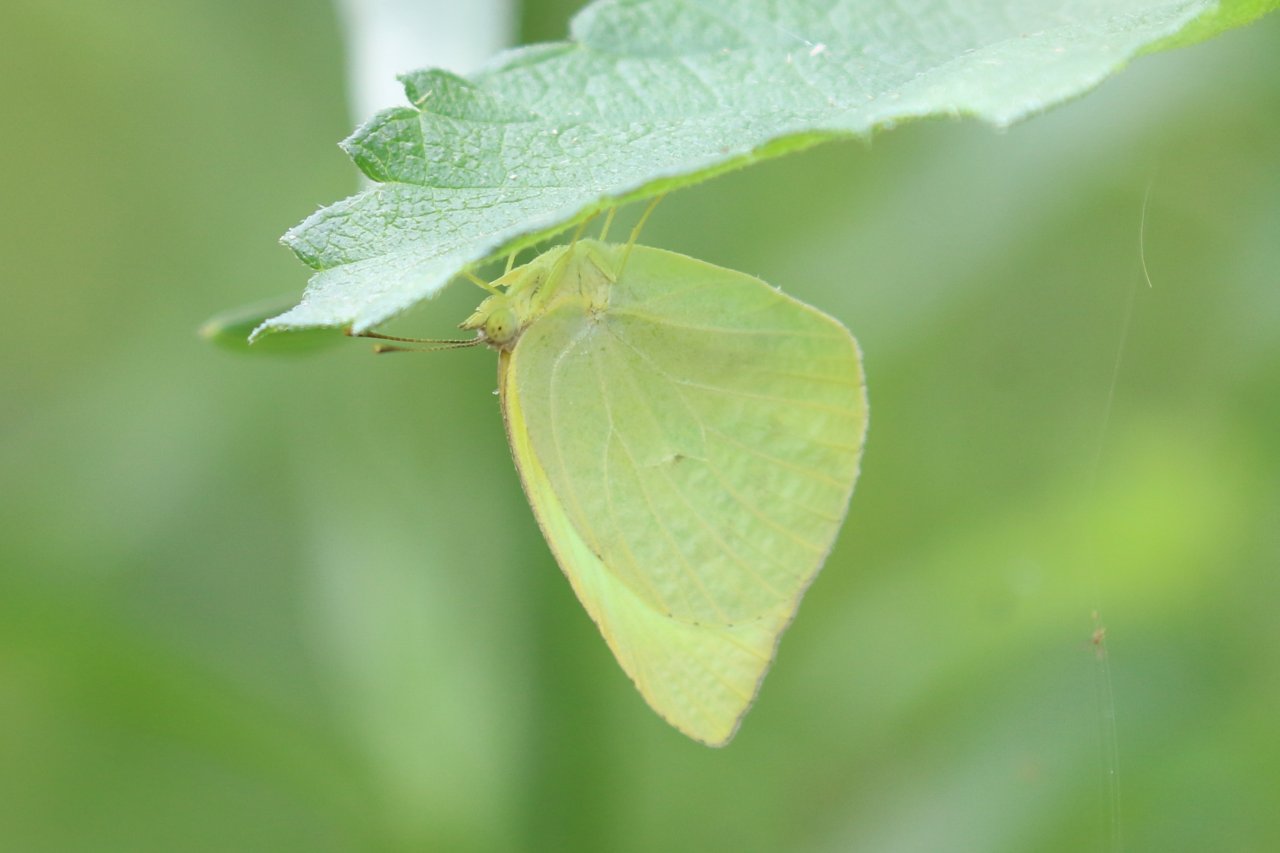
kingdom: Animalia
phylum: Arthropoda
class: Insecta
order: Lepidoptera
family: Pieridae
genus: Kricogonia
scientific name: Kricogonia lyside
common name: Lyside Sulphur
